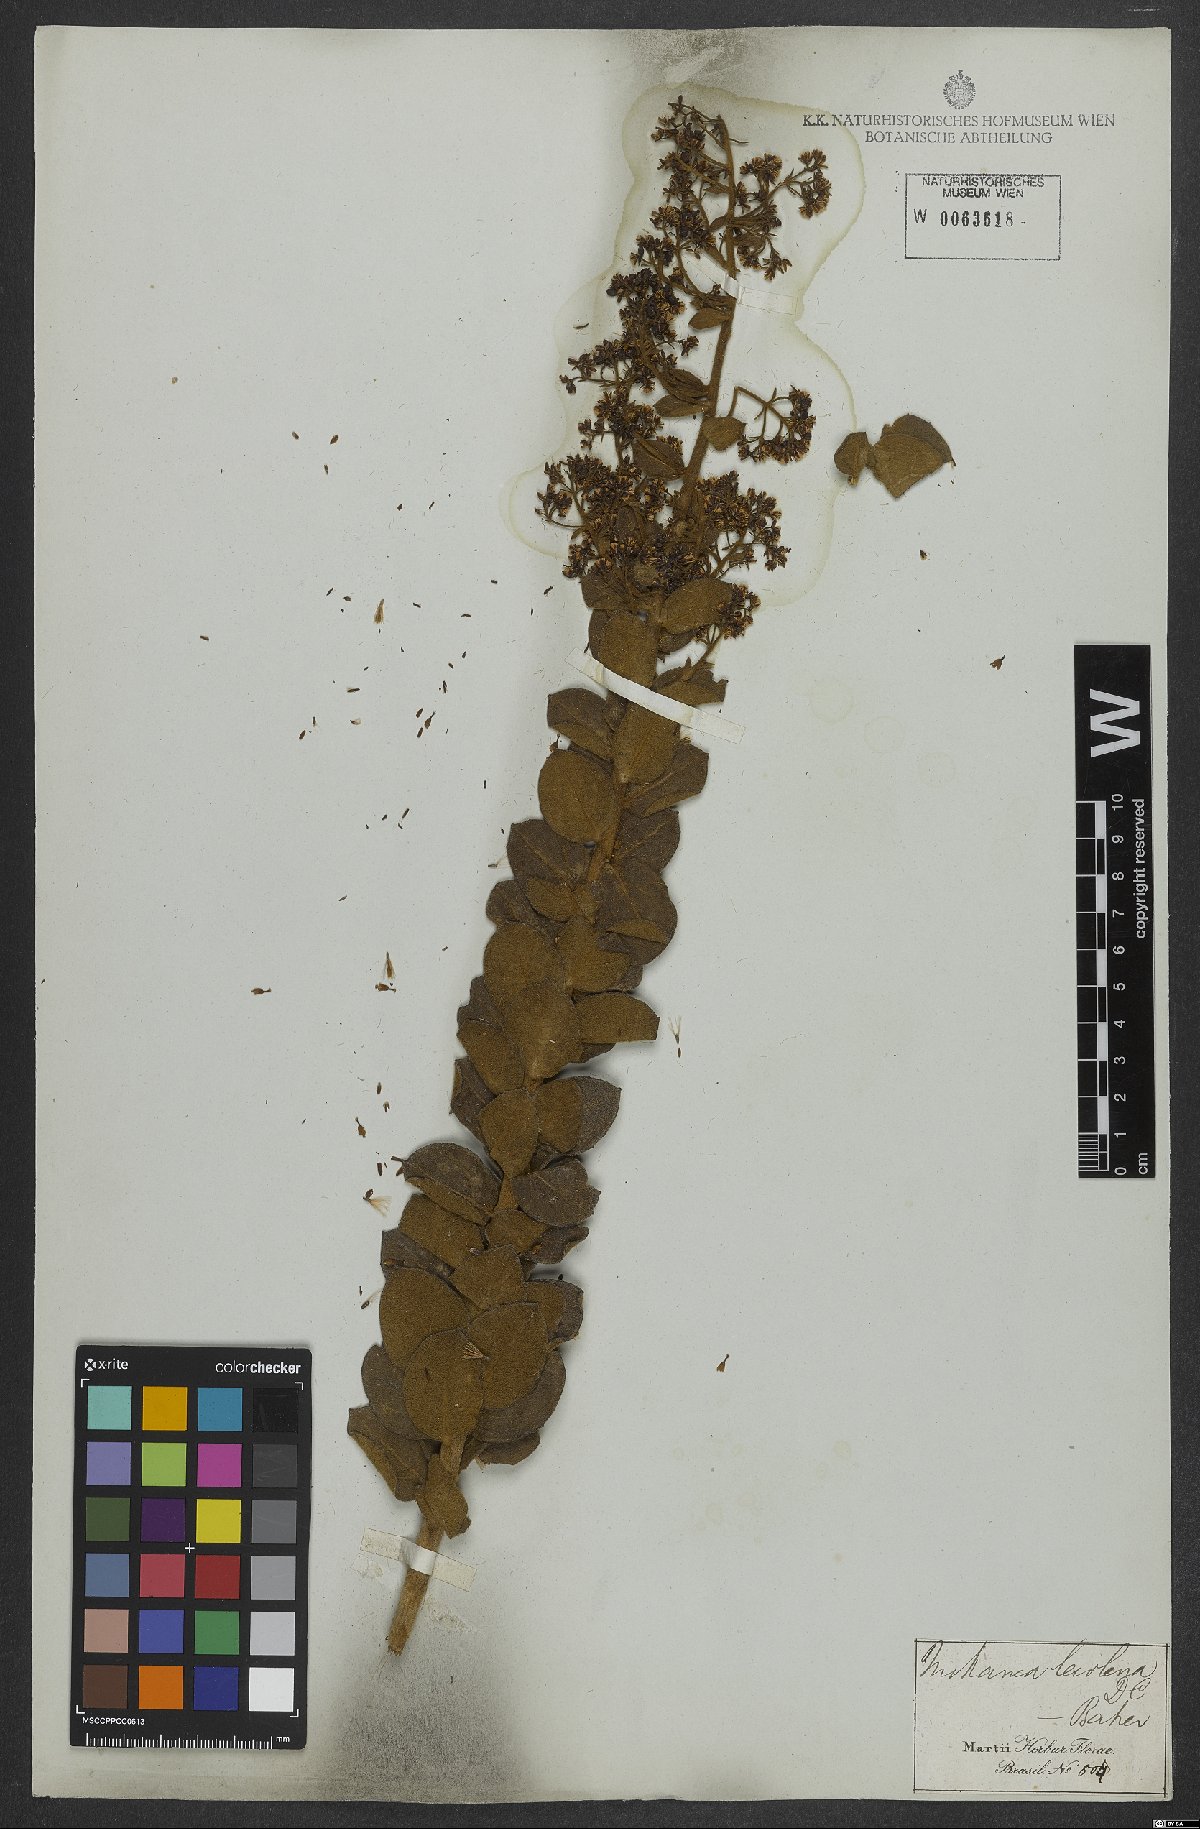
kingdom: Plantae
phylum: Tracheophyta
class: Magnoliopsida
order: Asterales
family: Asteraceae
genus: Mikania
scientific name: Mikania leiolaena
